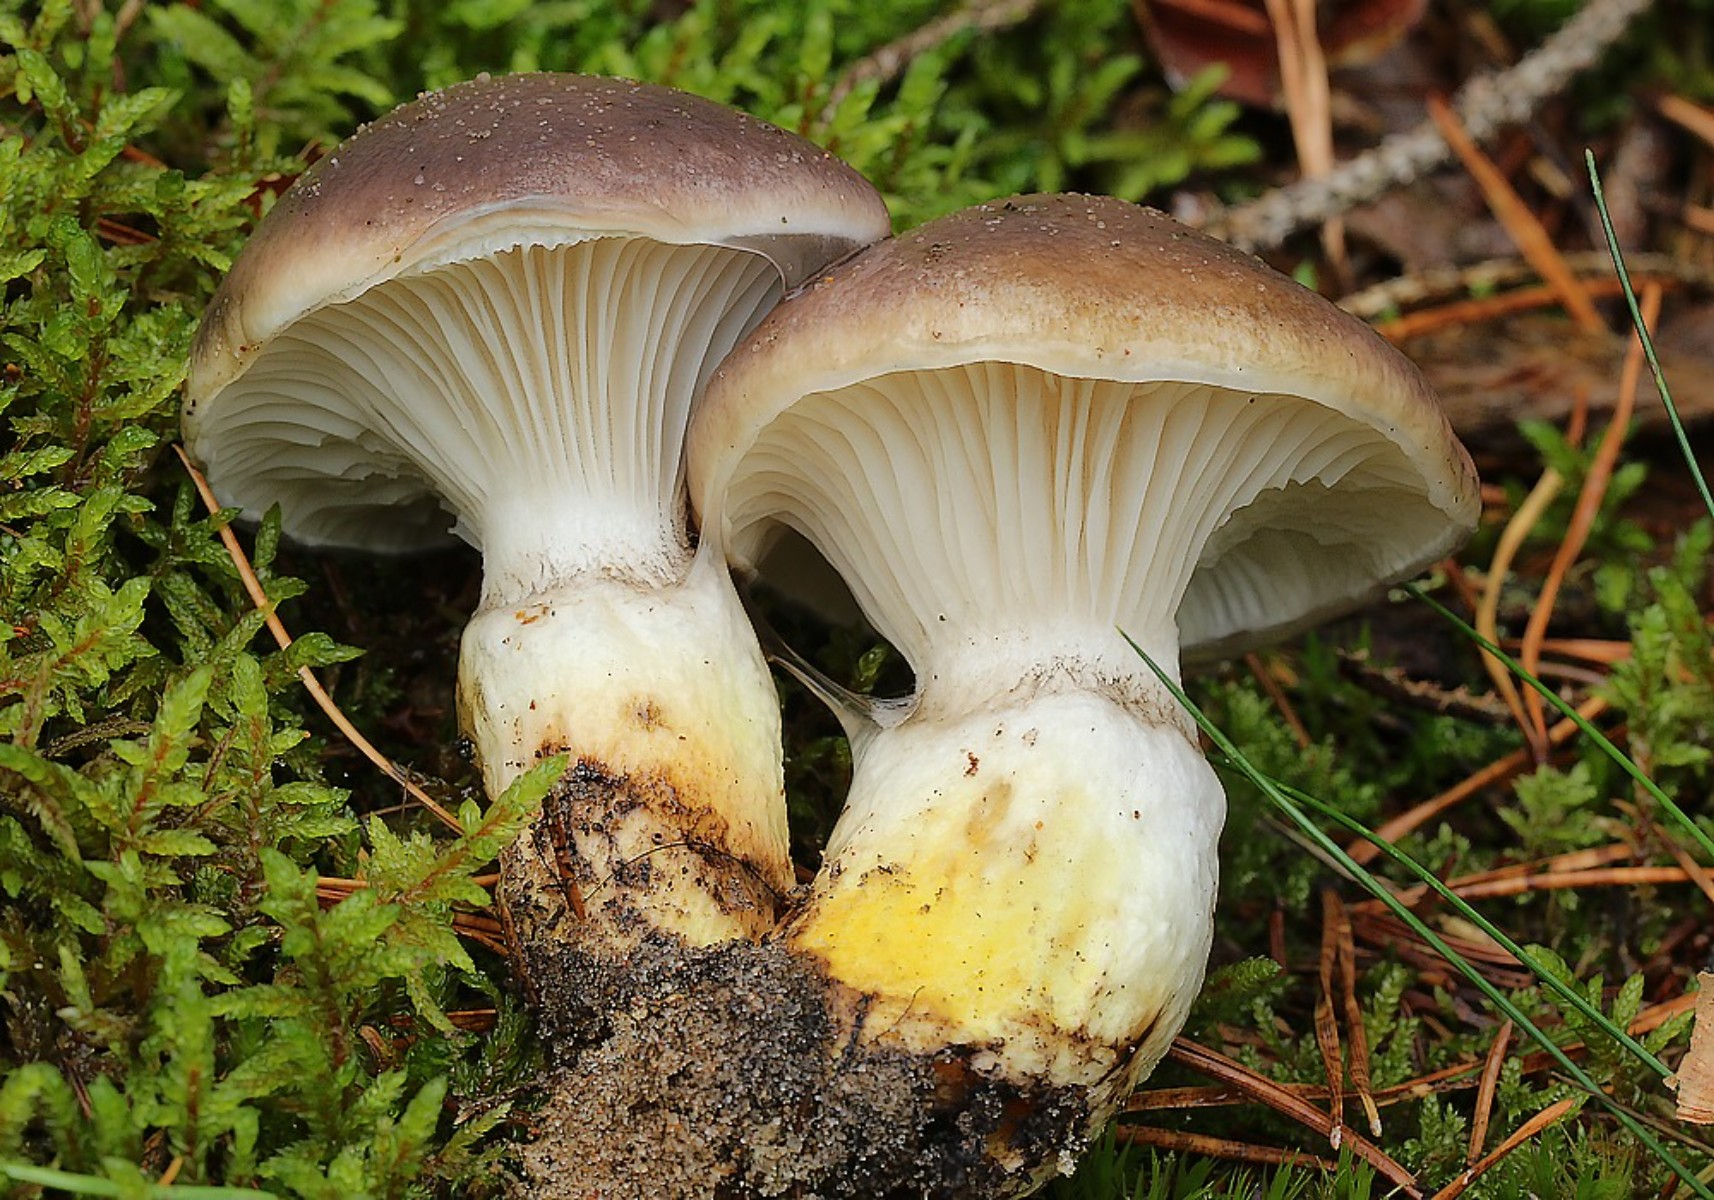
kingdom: Fungi
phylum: Basidiomycota
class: Agaricomycetes
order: Boletales
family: Gomphidiaceae
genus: Gomphidius
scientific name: Gomphidius glutinosus
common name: grå slimslør
